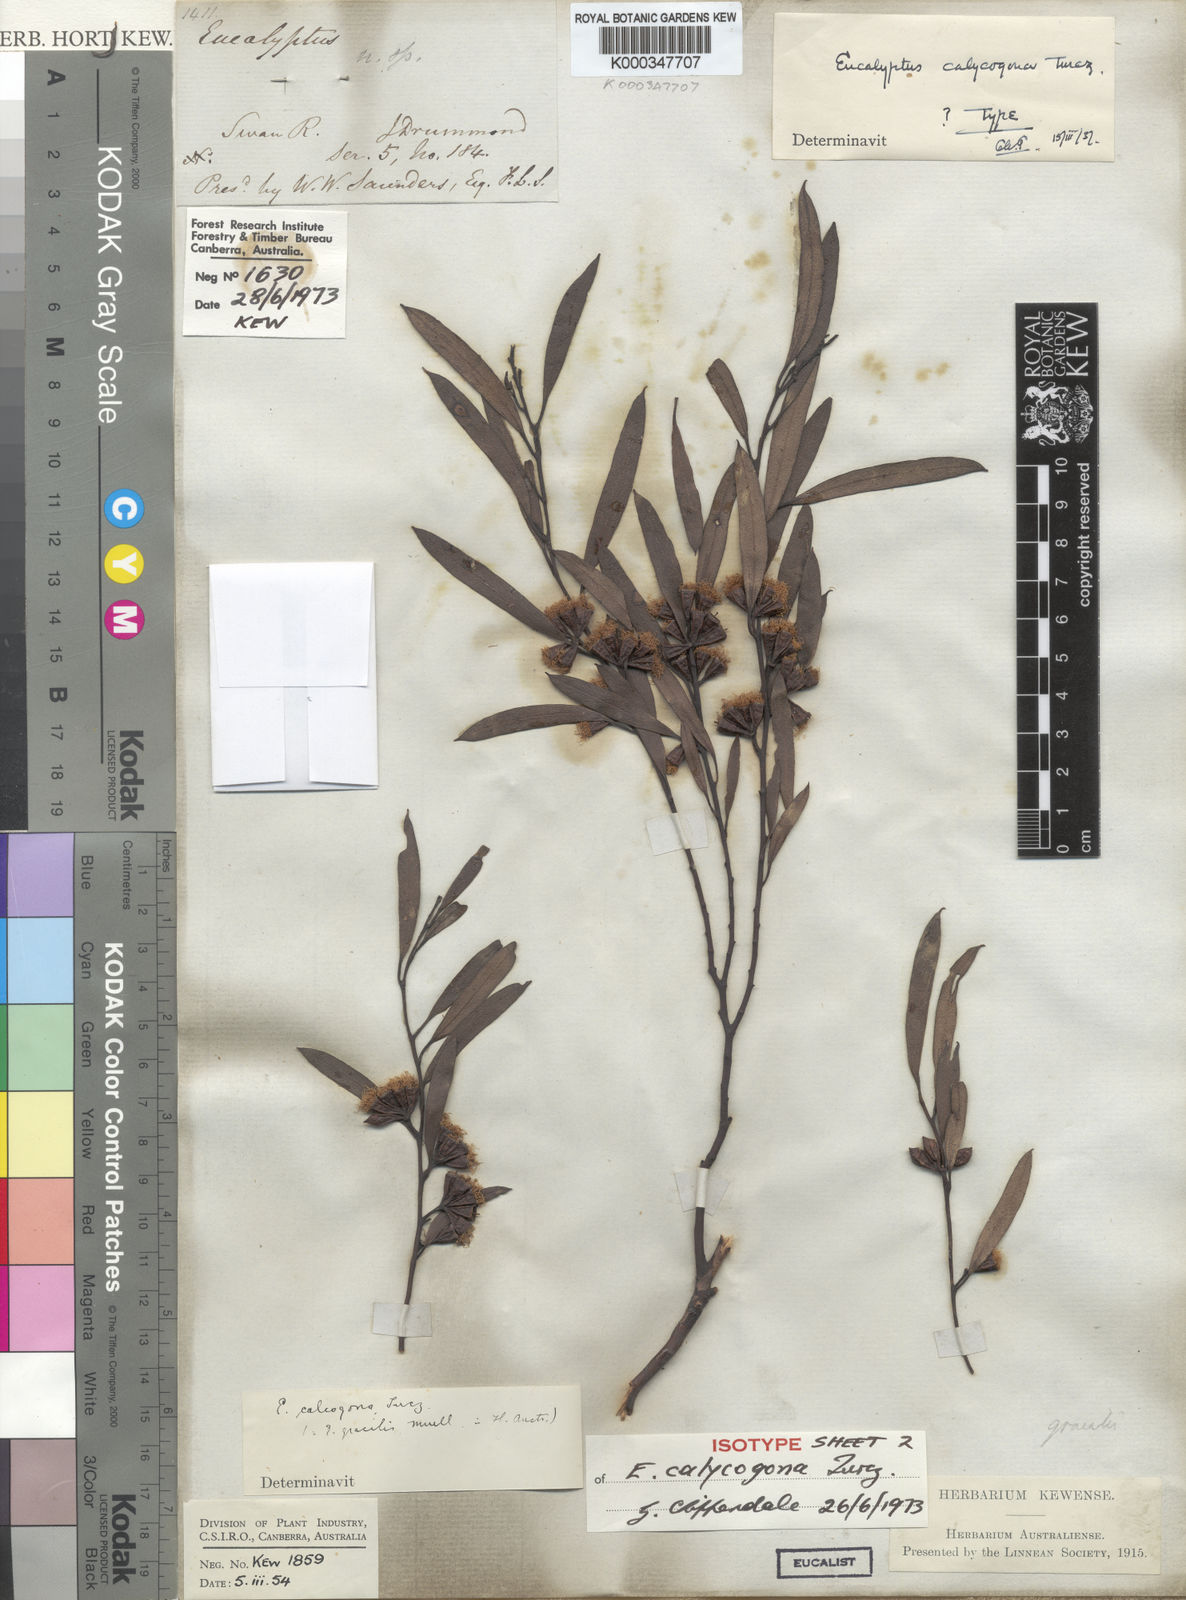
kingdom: Plantae
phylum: Tracheophyta
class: Magnoliopsida
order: Myrtales
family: Myrtaceae
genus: Eucalyptus
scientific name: Eucalyptus calycogona
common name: Marvel mallee
